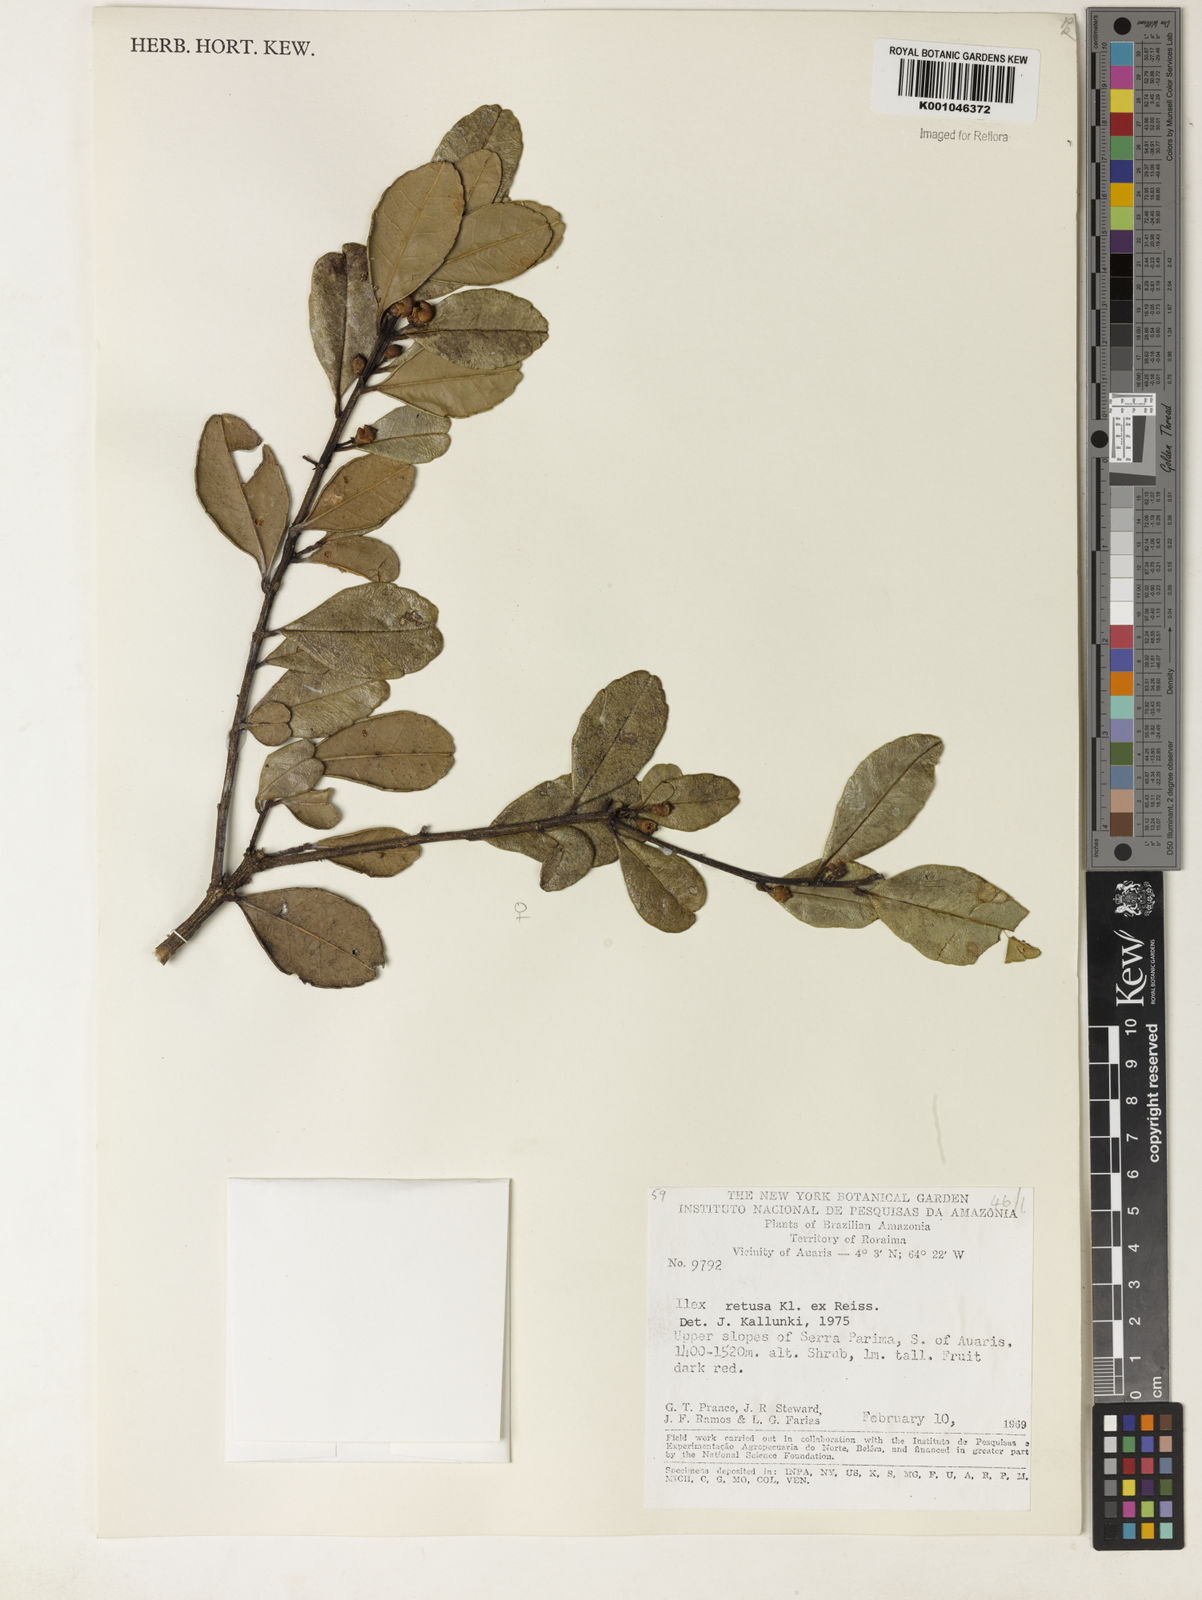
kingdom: Plantae
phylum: Tracheophyta
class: Magnoliopsida
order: Aquifoliales
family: Aquifoliaceae
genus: Ilex
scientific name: Ilex
